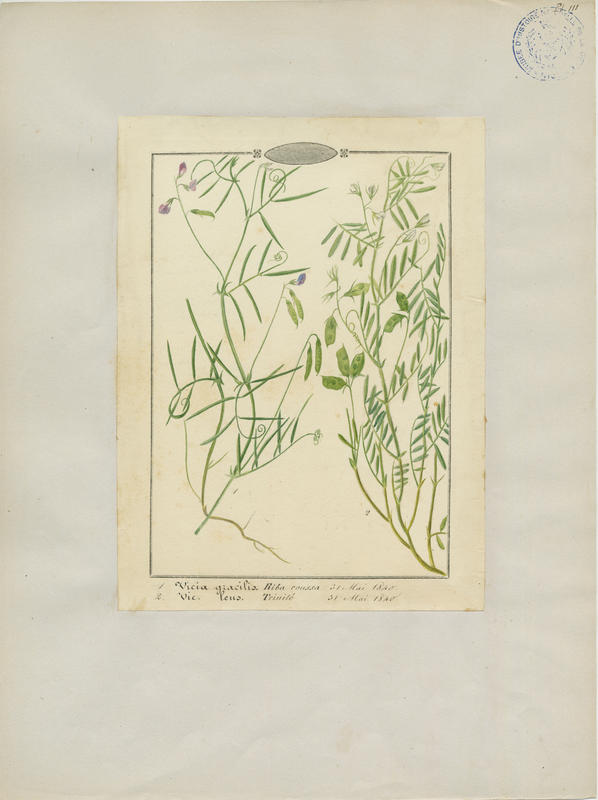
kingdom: Plantae
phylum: Tracheophyta
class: Magnoliopsida
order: Fabales
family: Fabaceae
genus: Vicia
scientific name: Vicia lens
